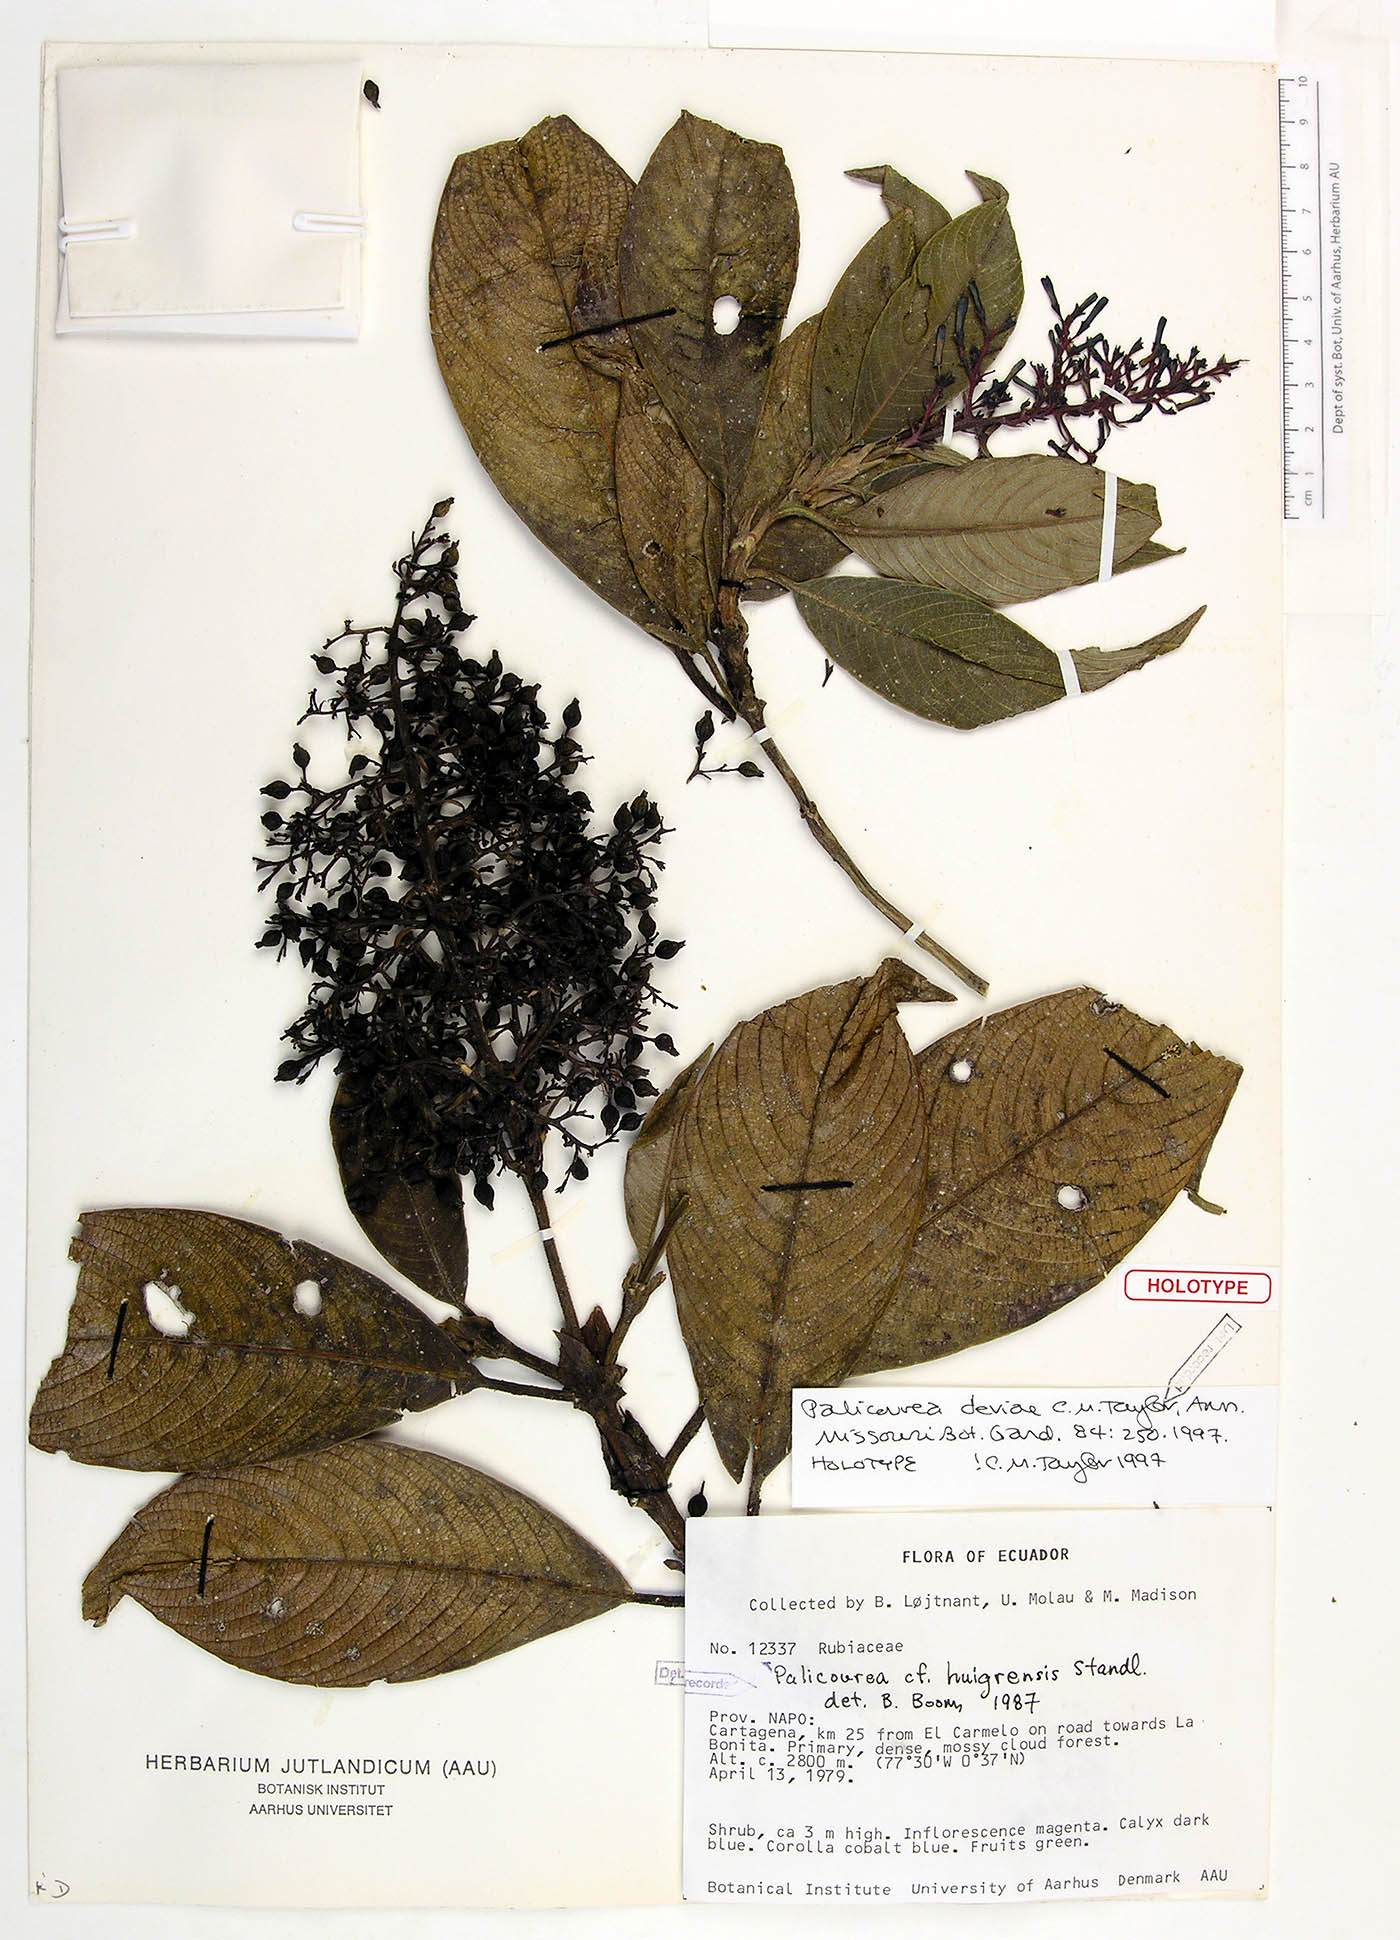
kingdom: Plantae
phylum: Tracheophyta
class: Magnoliopsida
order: Gentianales
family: Rubiaceae
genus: Palicourea
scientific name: Palicourea deviae
